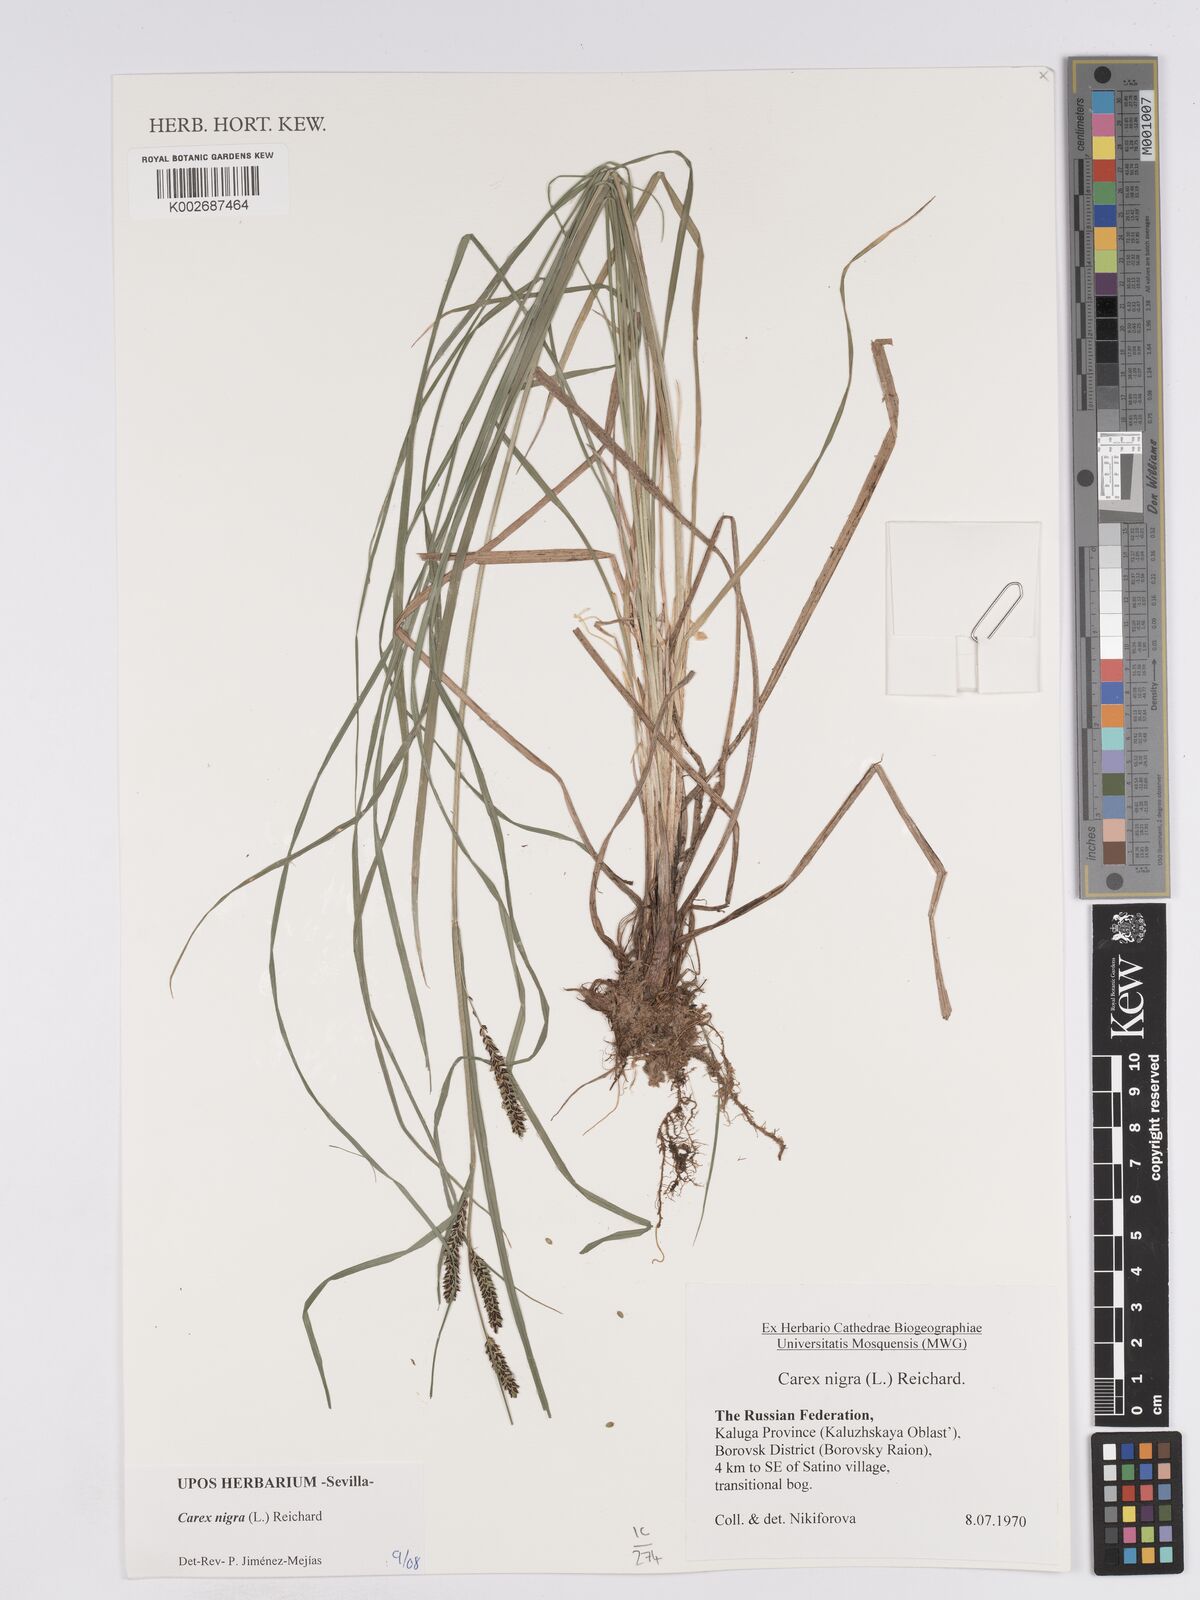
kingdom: Plantae
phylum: Tracheophyta
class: Liliopsida
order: Poales
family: Cyperaceae
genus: Carex
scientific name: Carex nigra
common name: Common sedge
